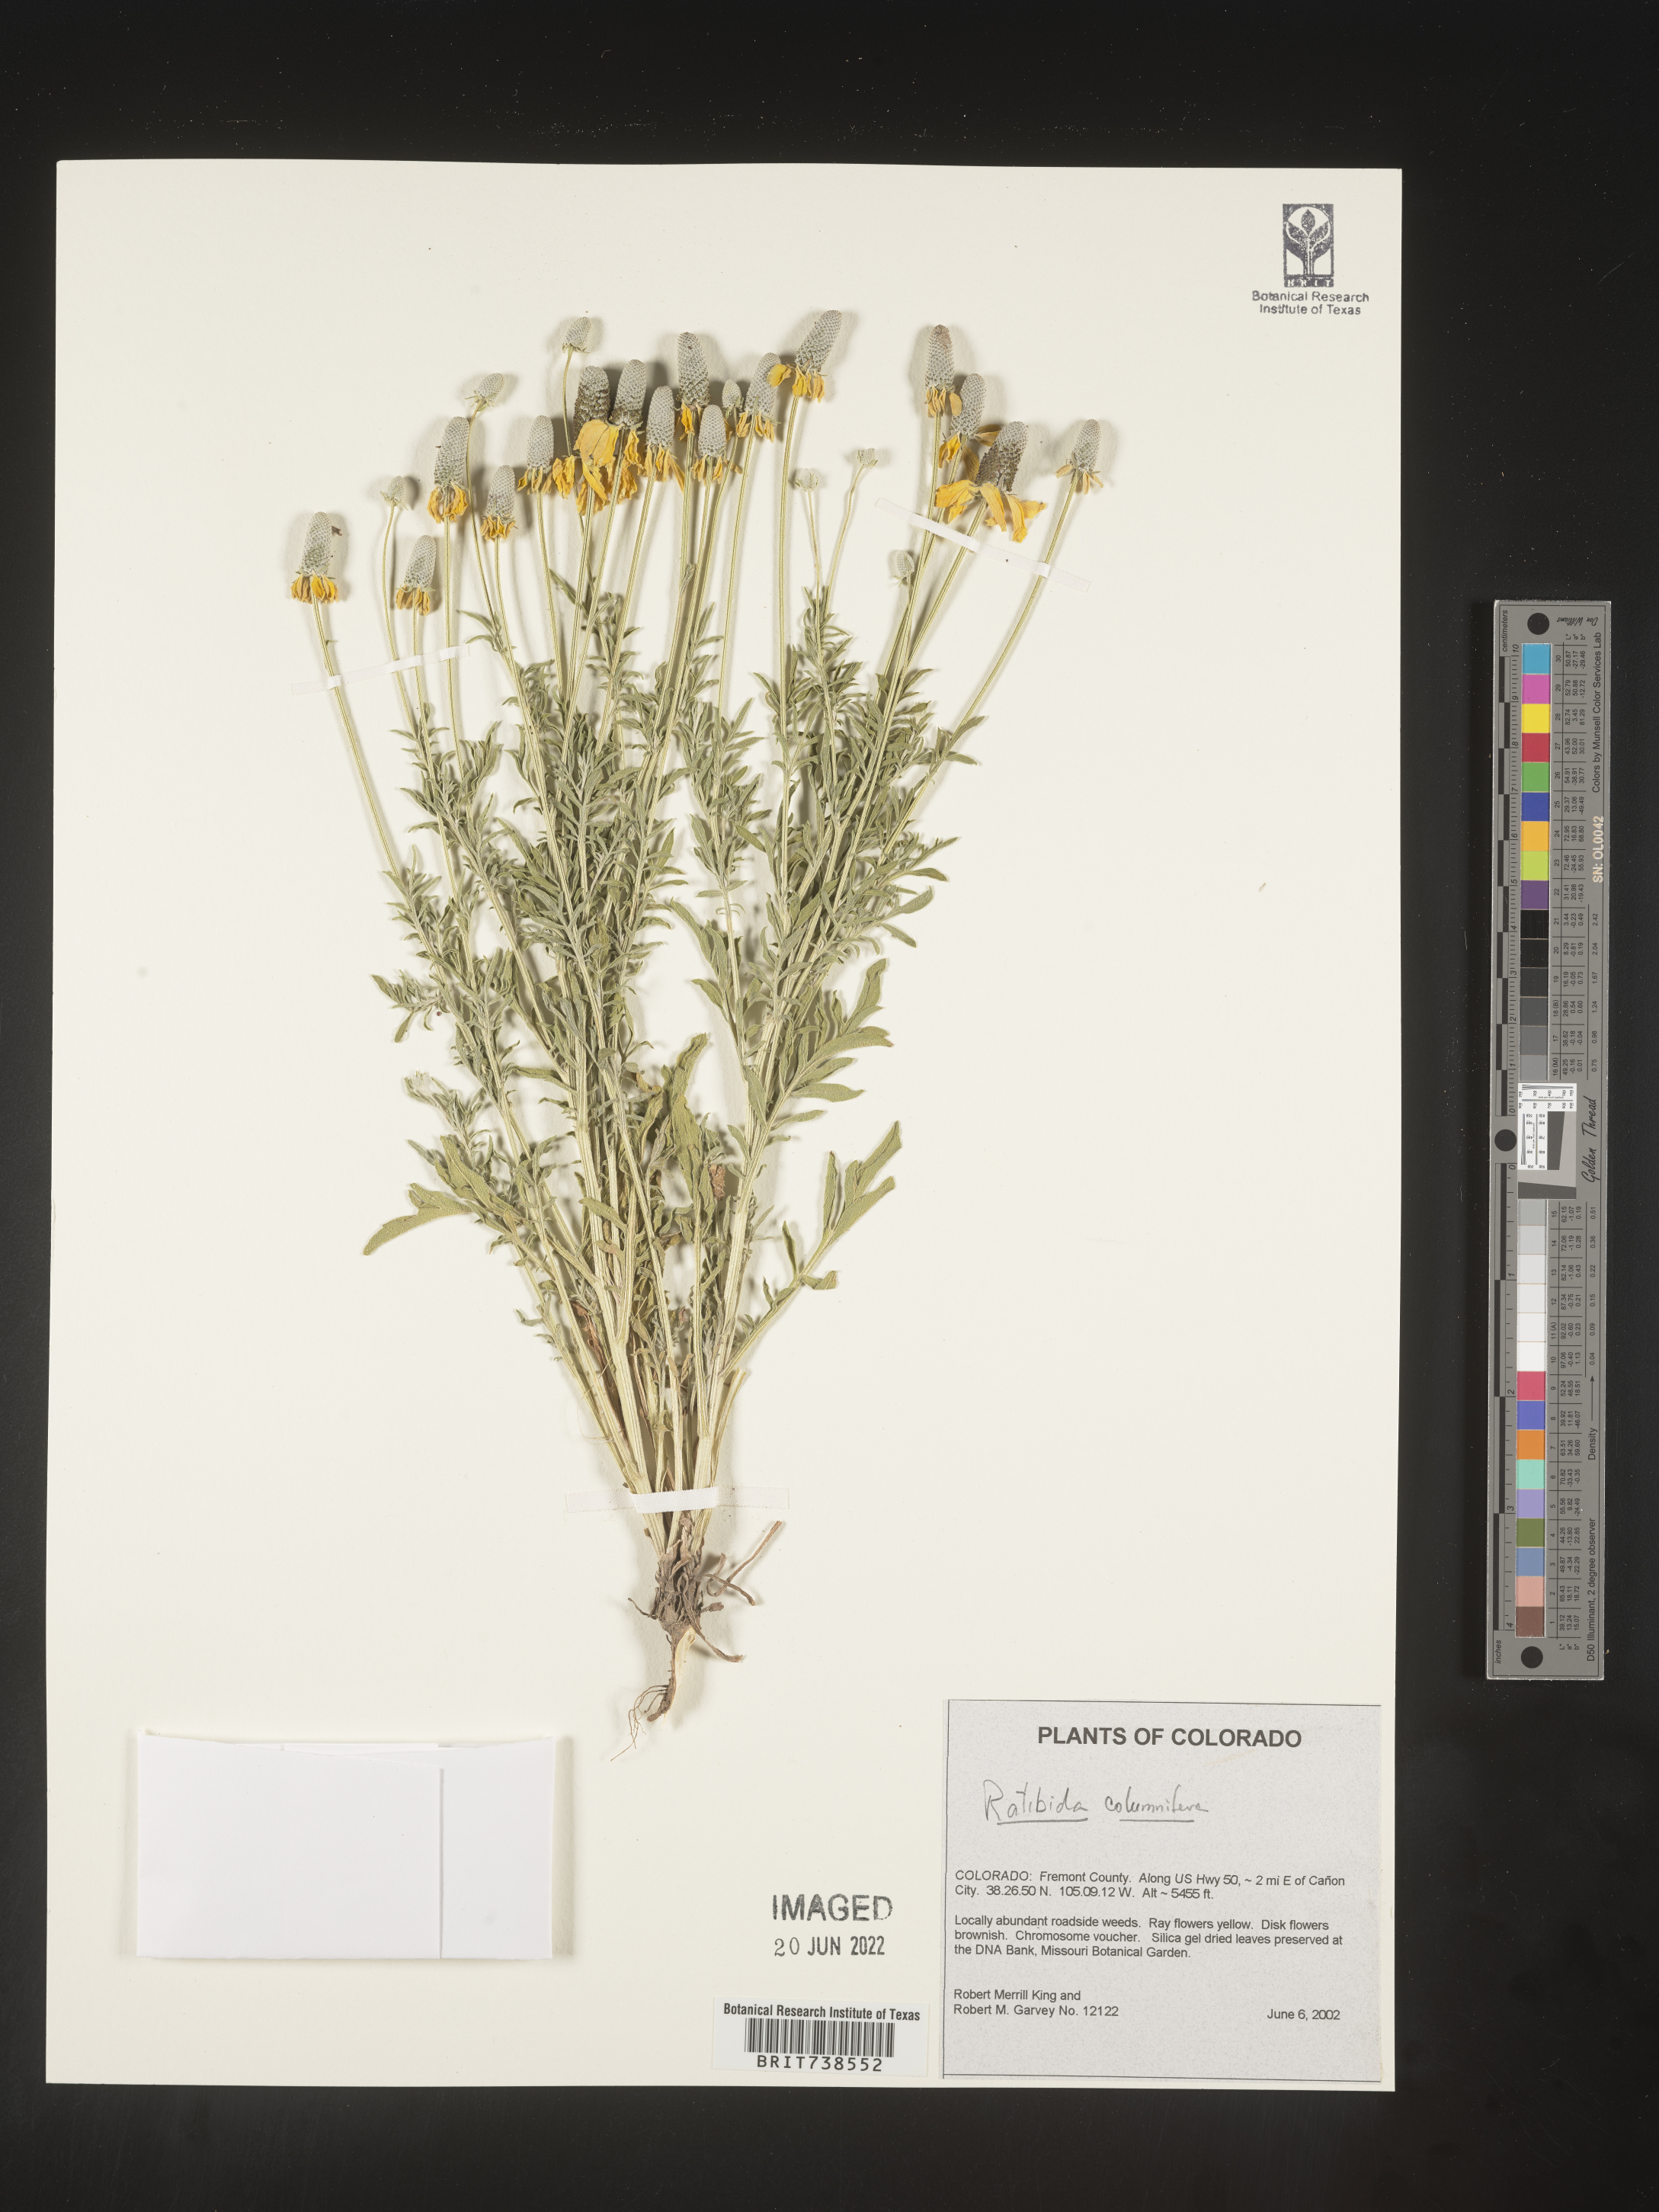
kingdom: Plantae
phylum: Tracheophyta
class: Magnoliopsida
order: Asterales
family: Asteraceae
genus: Ratibida
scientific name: Ratibida columnifera
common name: Prairie coneflower
